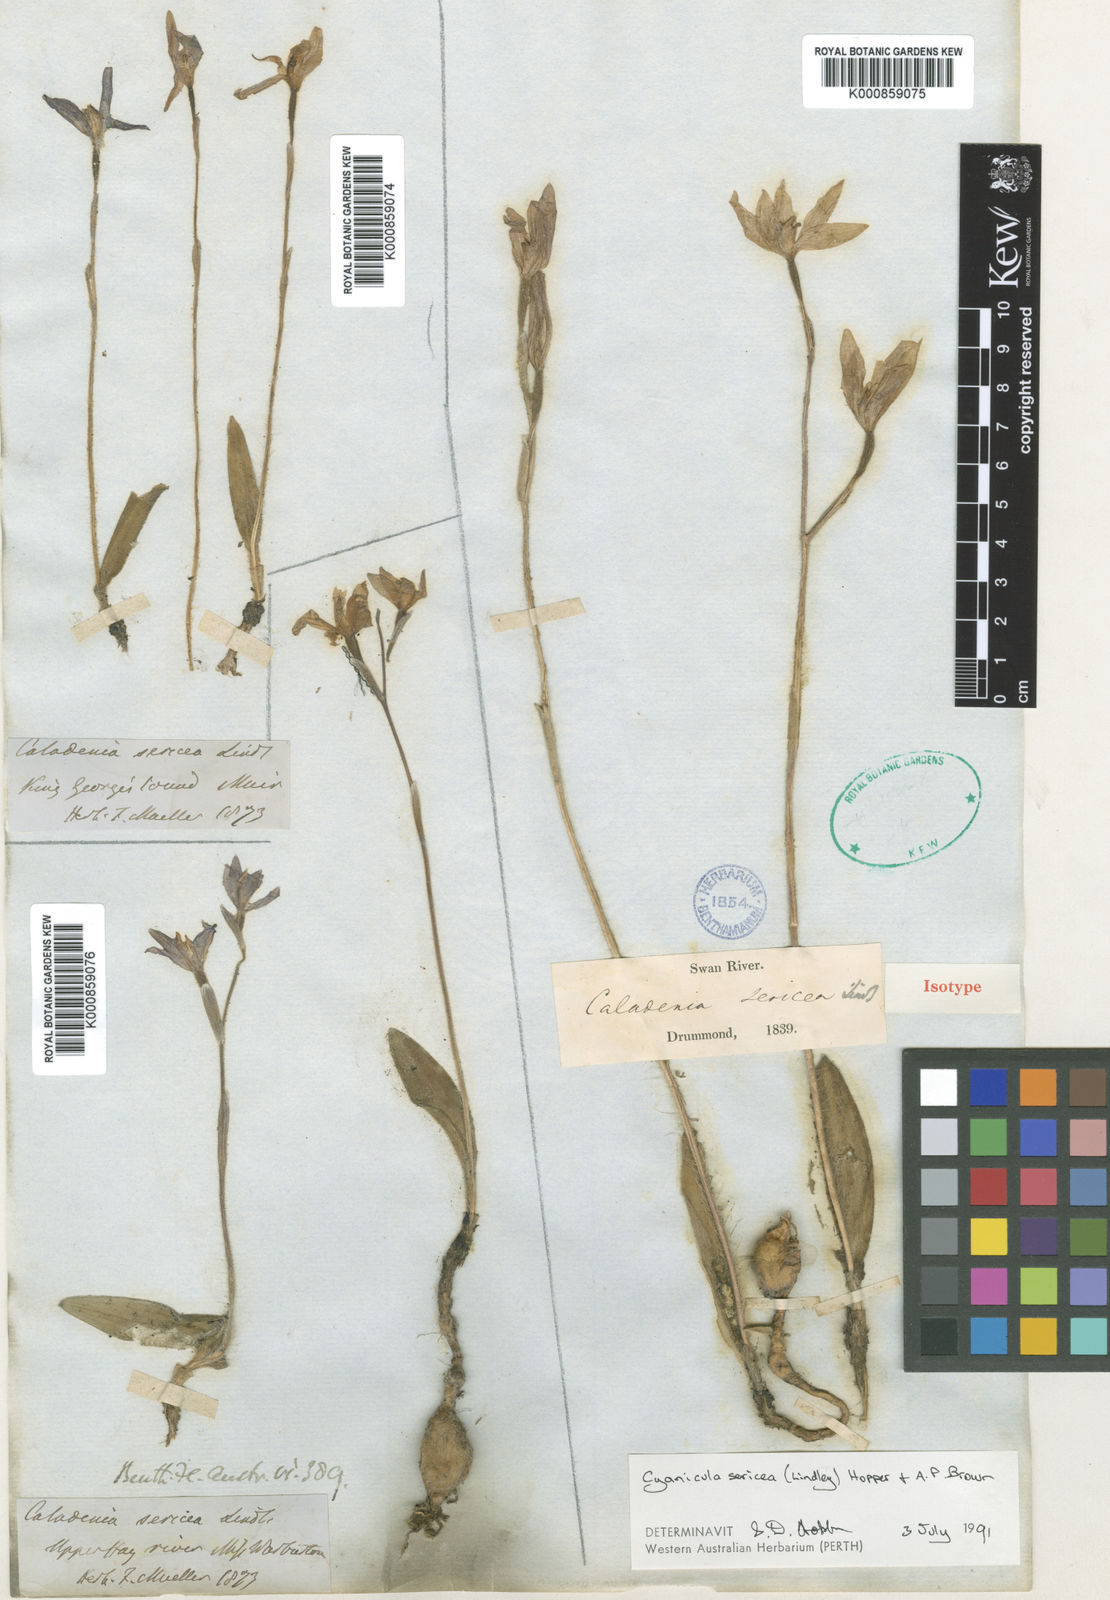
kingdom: Plantae
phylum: Tracheophyta
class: Liliopsida
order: Asparagales
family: Orchidaceae
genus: Caladenia
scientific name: Caladenia sericea
